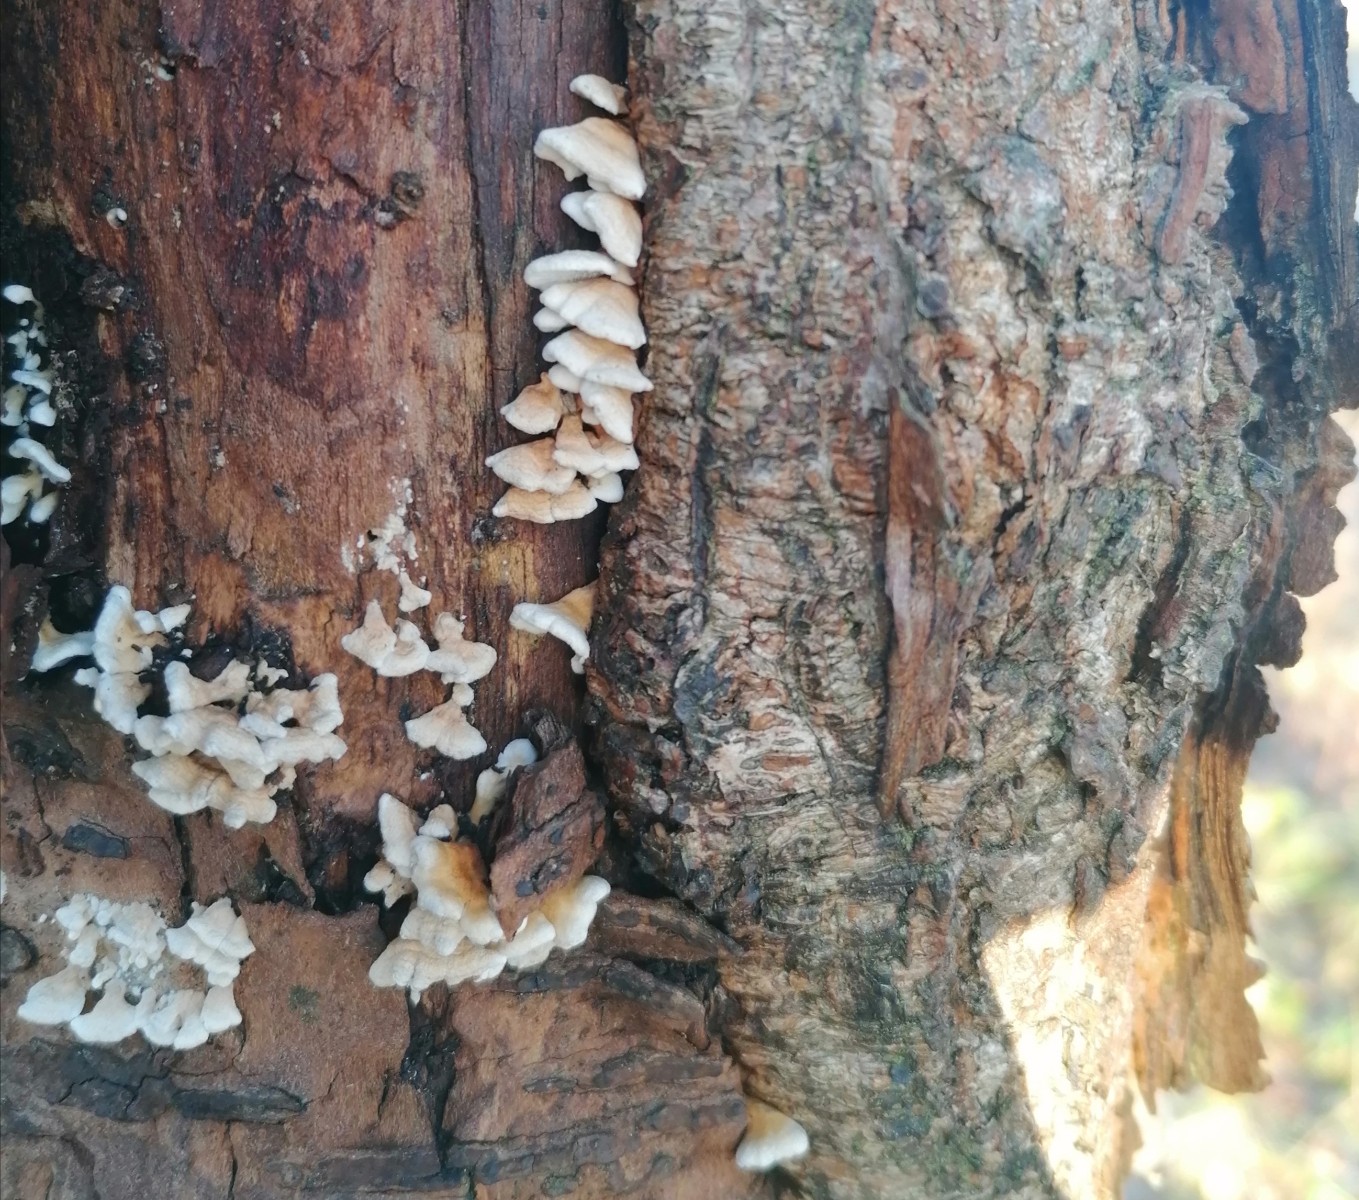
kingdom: Fungi
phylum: Basidiomycota
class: Agaricomycetes
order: Amylocorticiales
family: Amylocorticiaceae
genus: Plicaturopsis
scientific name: Plicaturopsis crispa
